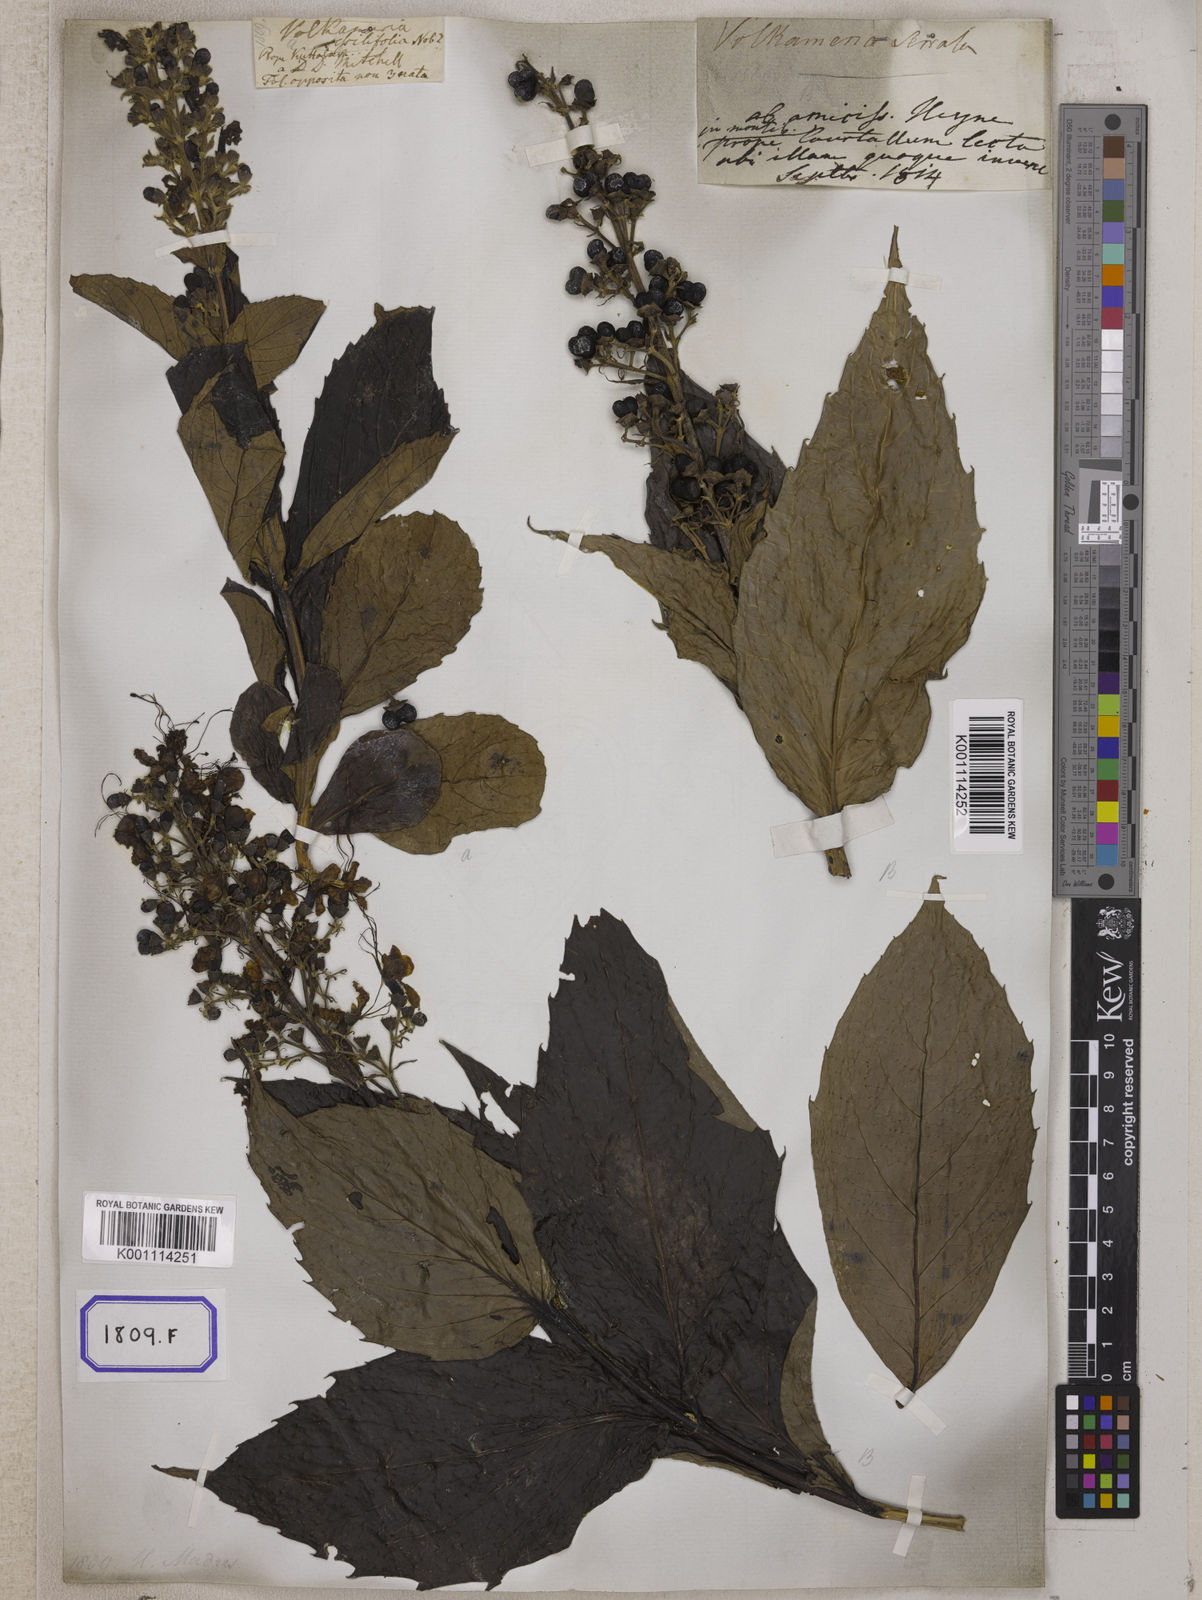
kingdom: Plantae
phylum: Tracheophyta
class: Magnoliopsida
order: Lamiales
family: Lamiaceae
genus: Clerodendrum
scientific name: Clerodendrum
